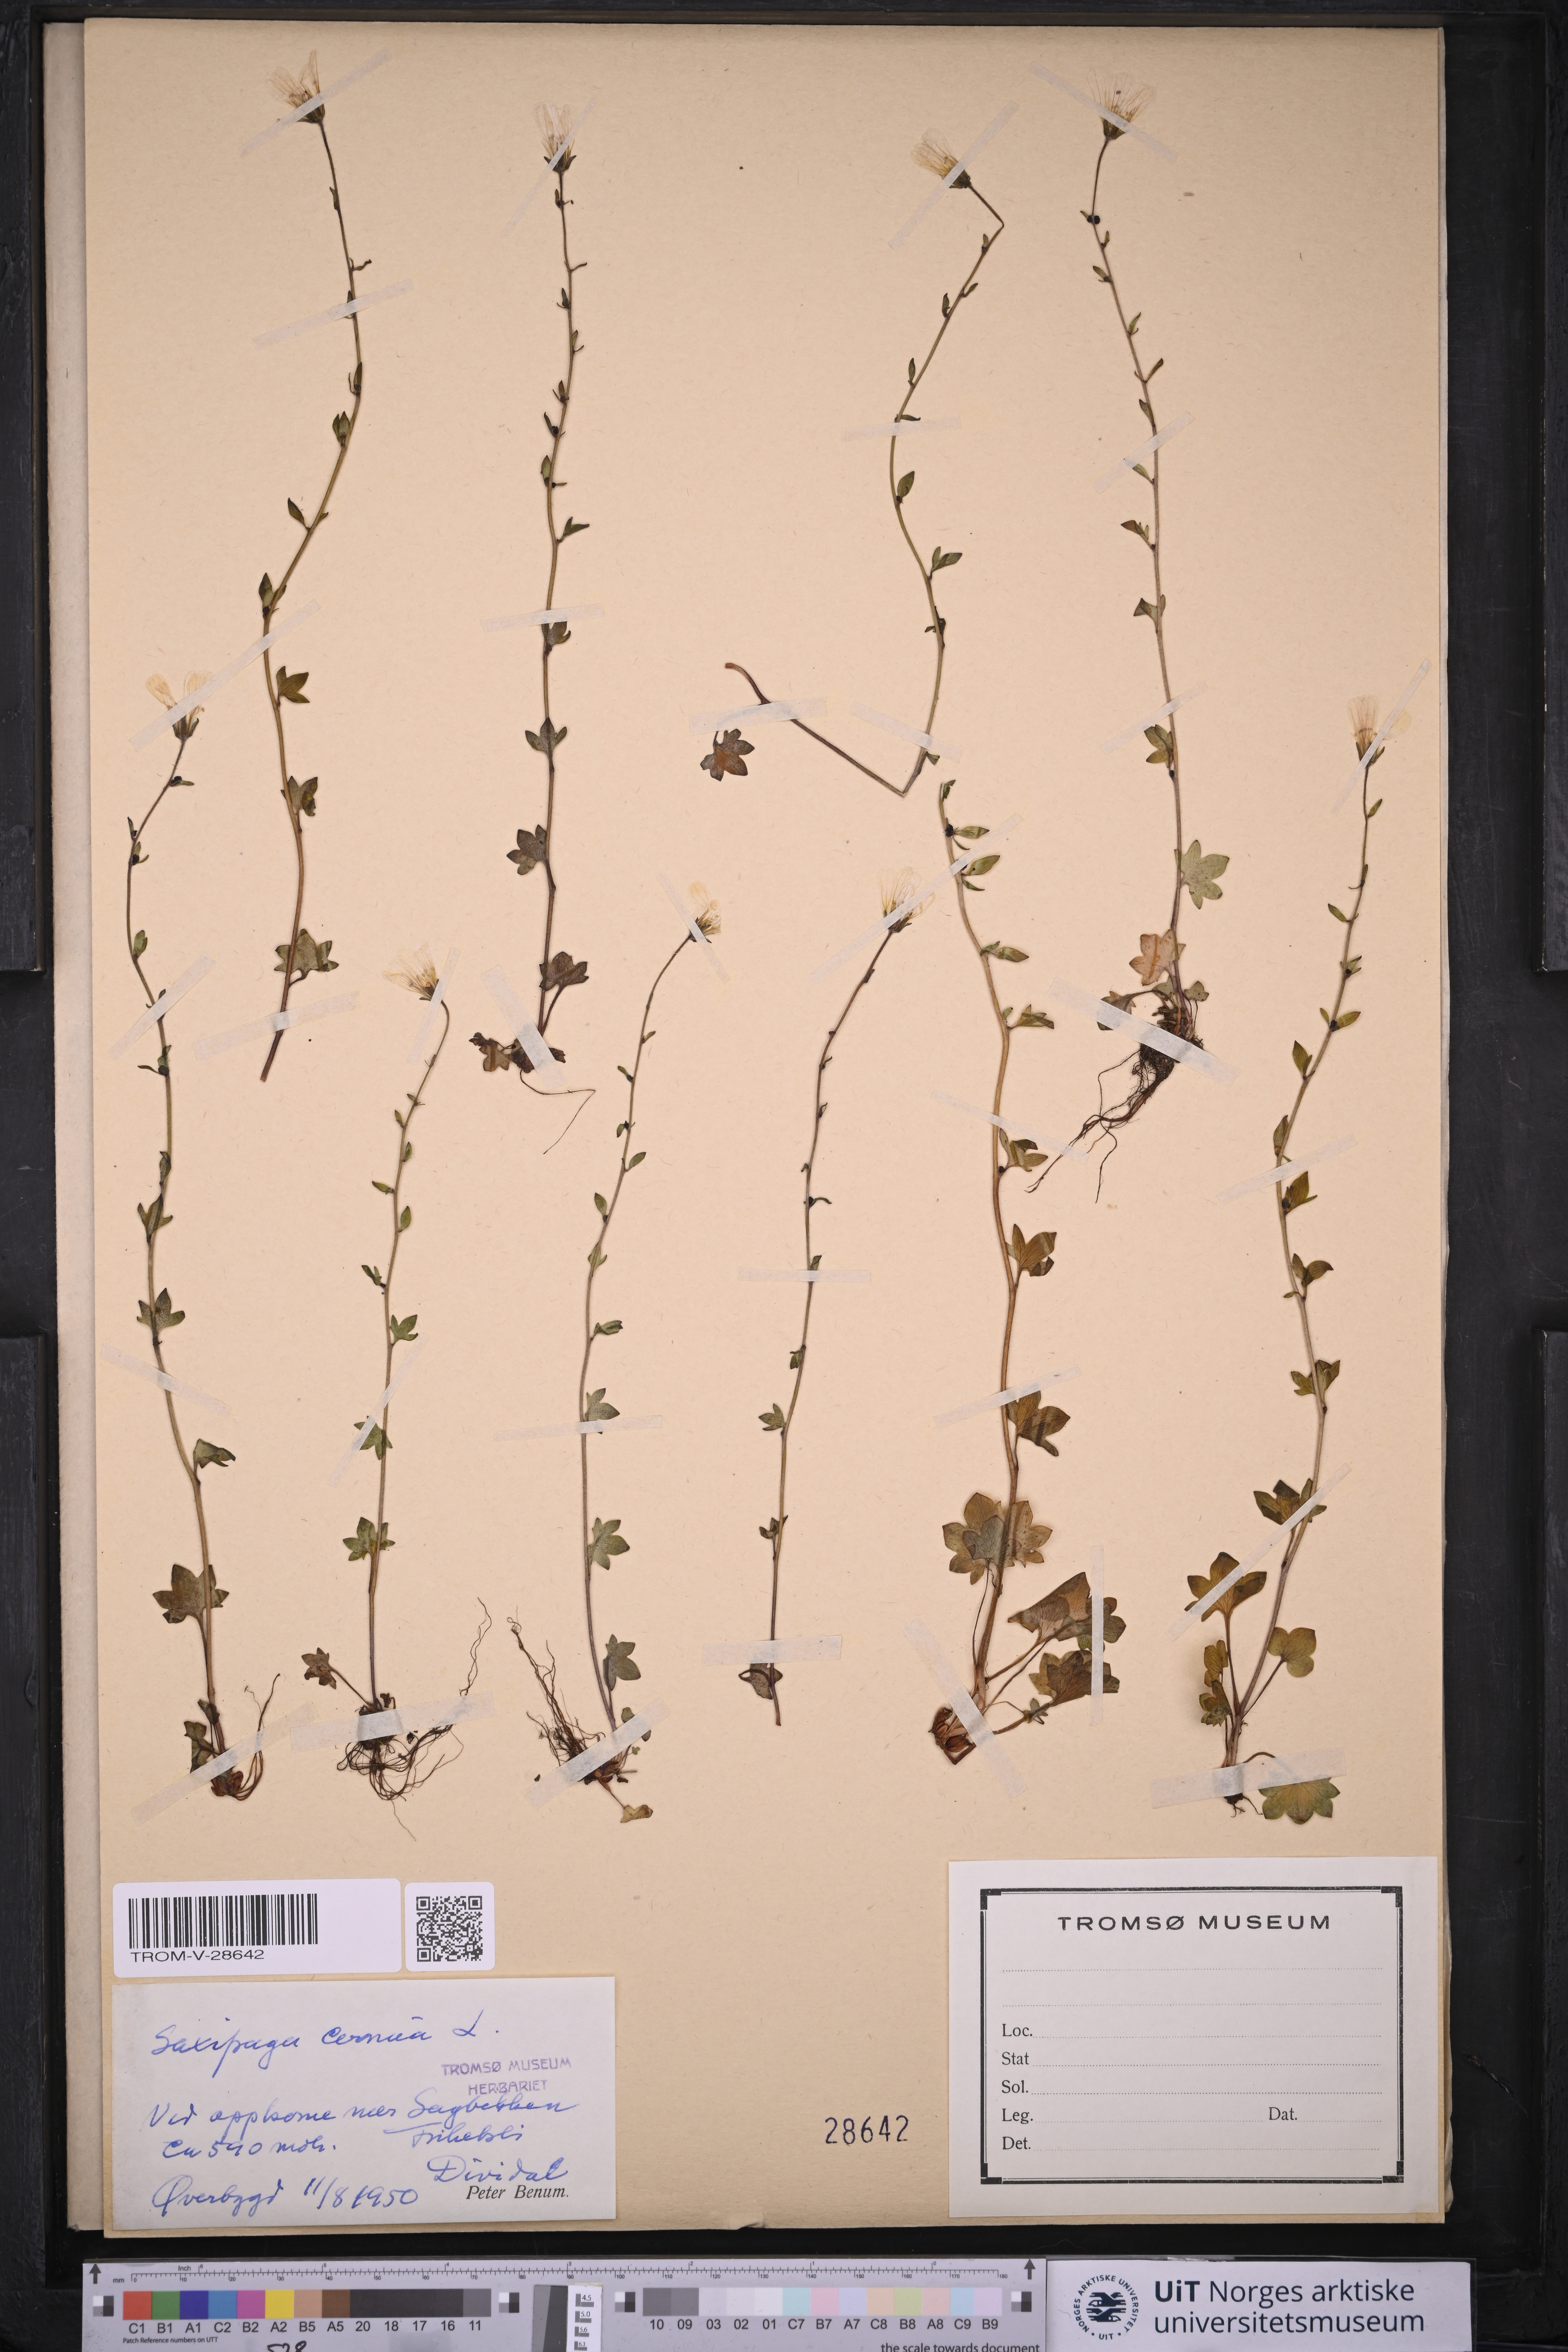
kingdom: Plantae
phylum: Tracheophyta
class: Magnoliopsida
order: Saxifragales
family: Saxifragaceae
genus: Saxifraga
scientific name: Saxifraga cernua
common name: Drooping saxifrage
